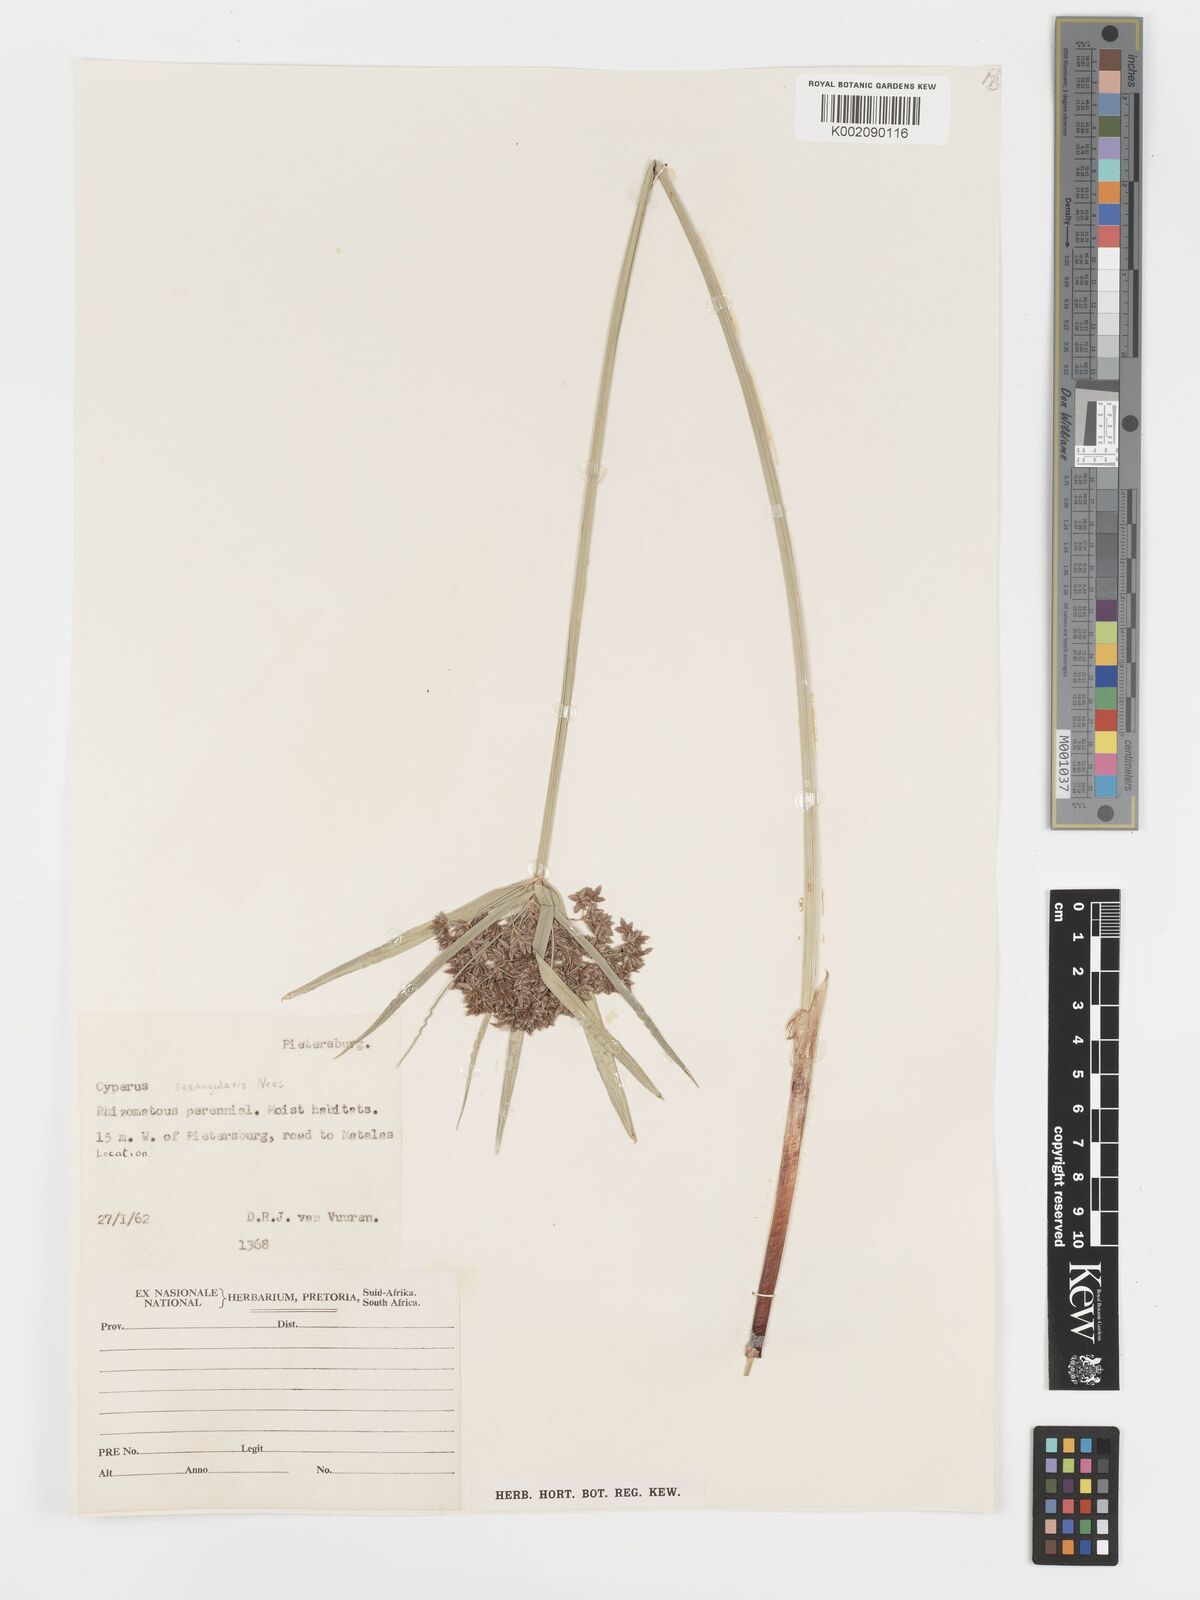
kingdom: Plantae
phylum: Tracheophyta
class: Liliopsida
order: Poales
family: Cyperaceae
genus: Cyperus
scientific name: Cyperus sexangularis
